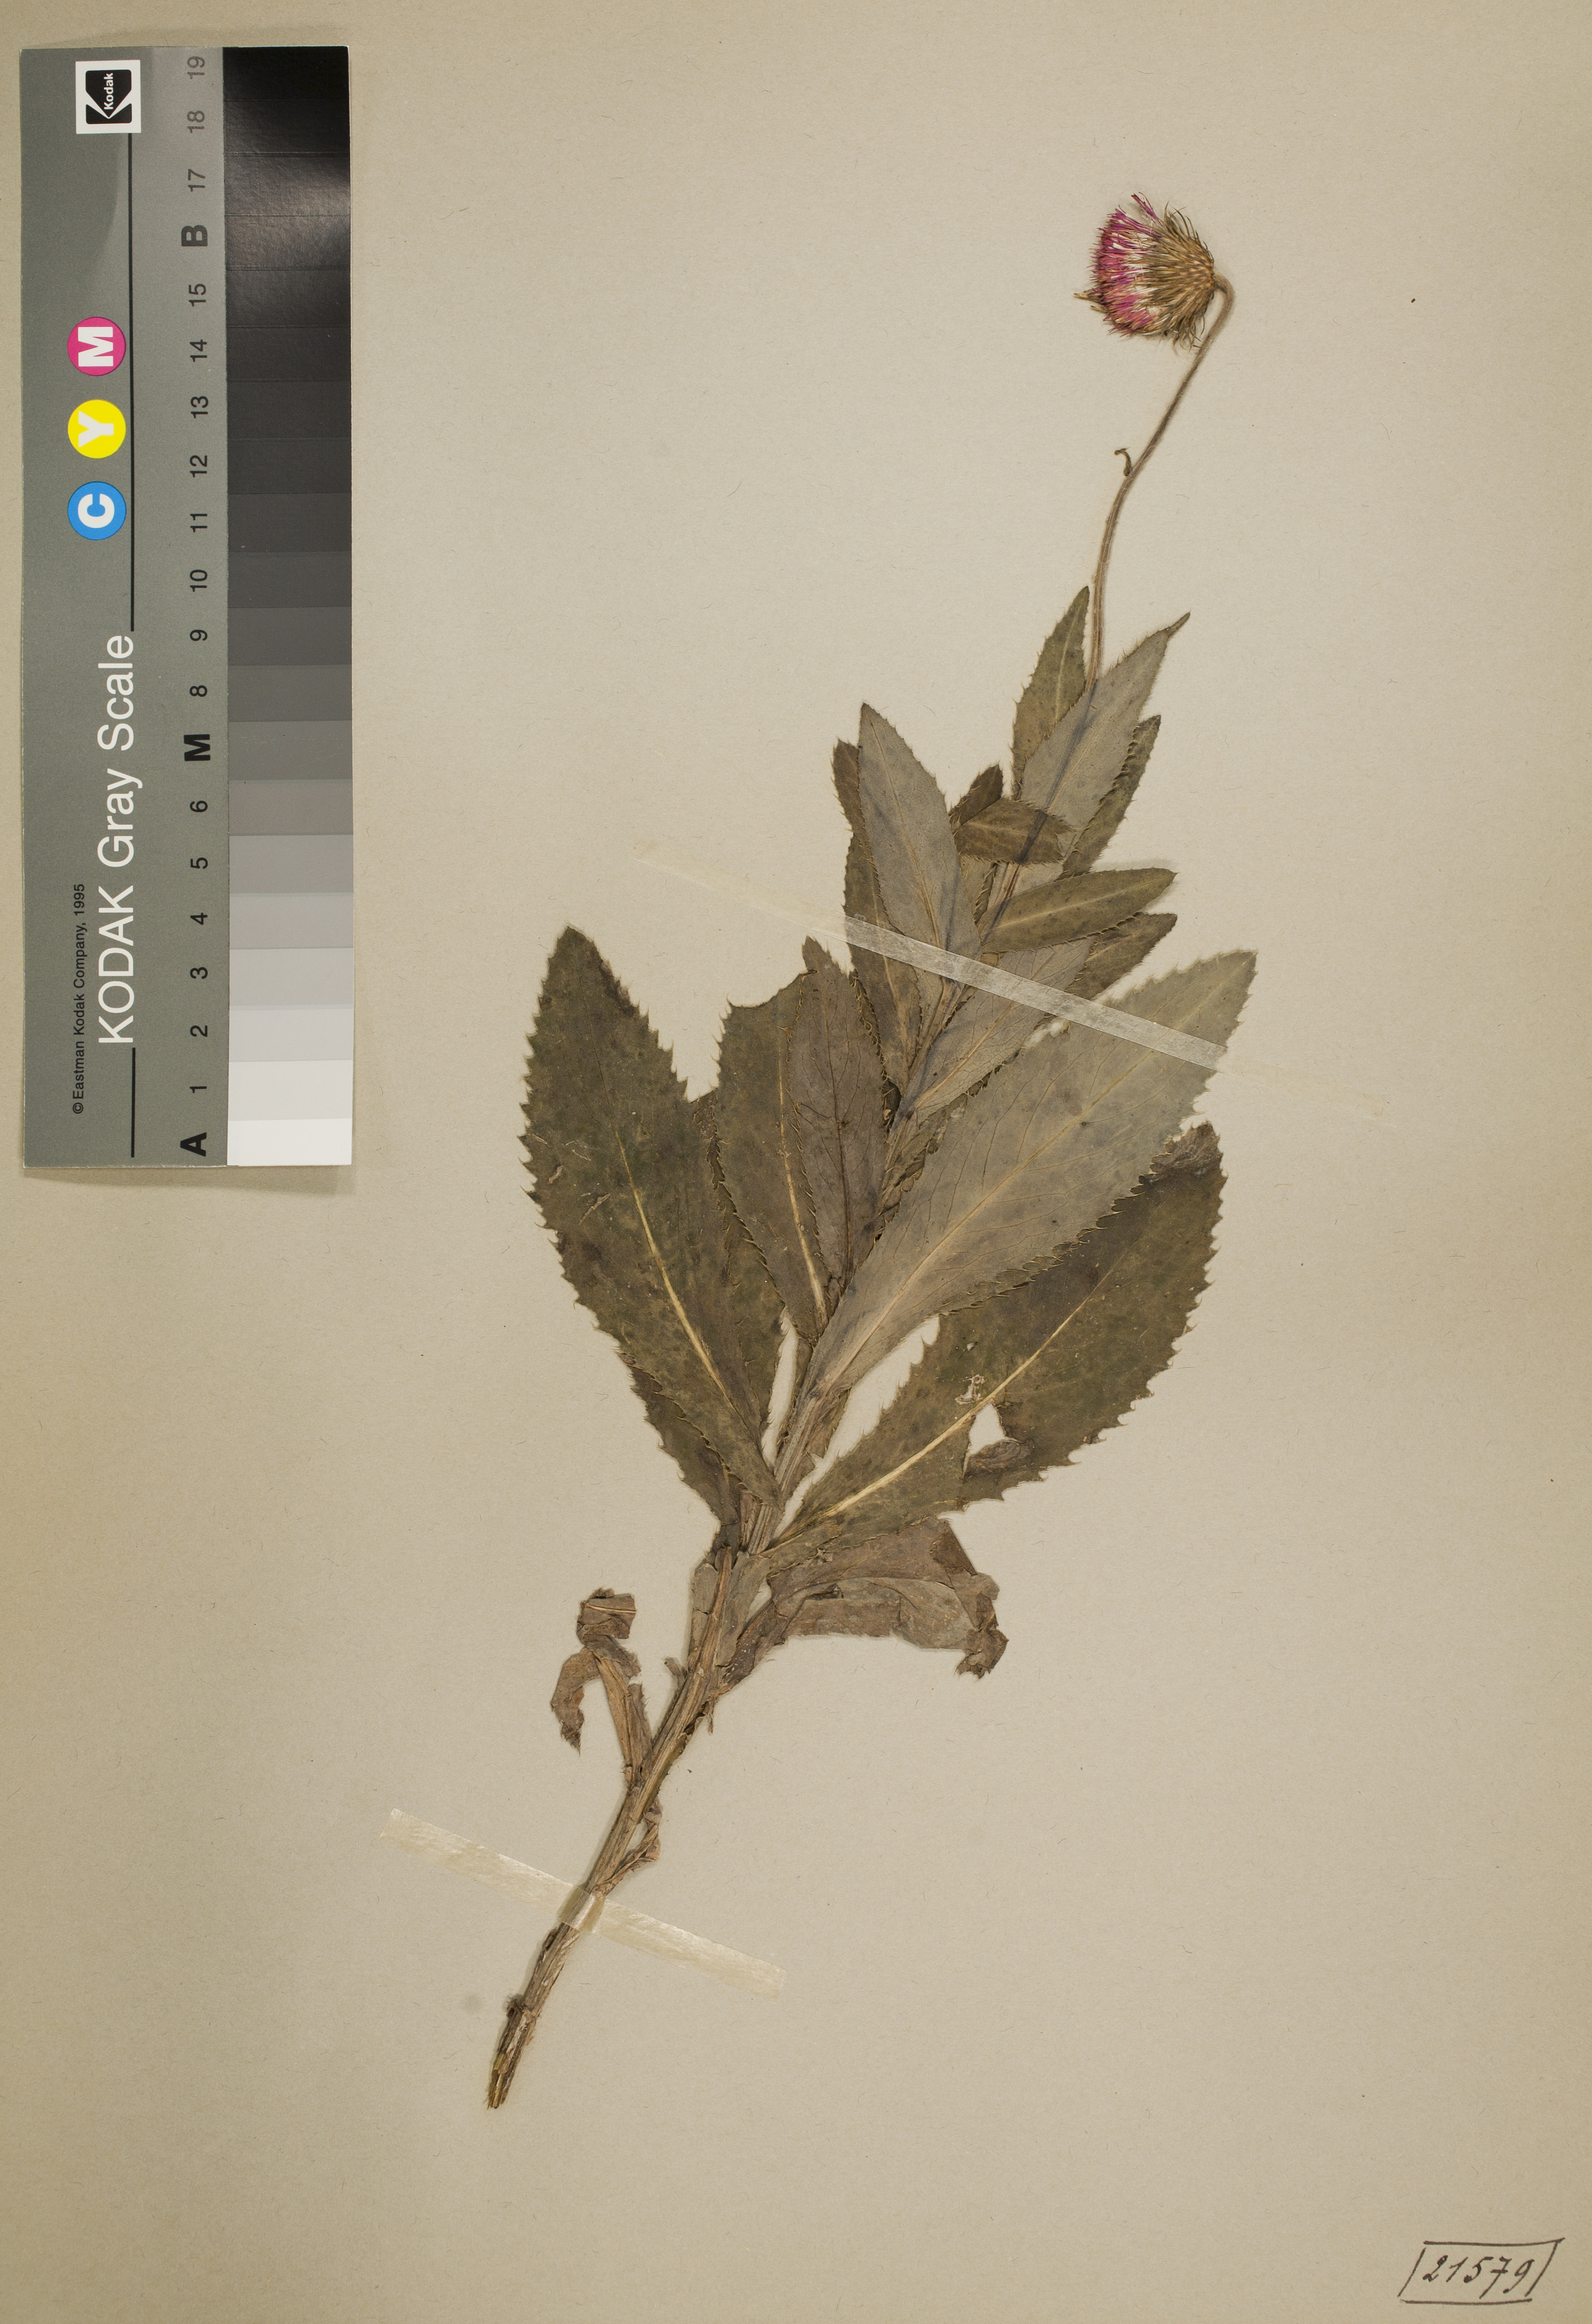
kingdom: Plantae
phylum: Tracheophyta
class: Magnoliopsida
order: Asterales
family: Asteraceae
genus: Carduus
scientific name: Carduus defloratus
